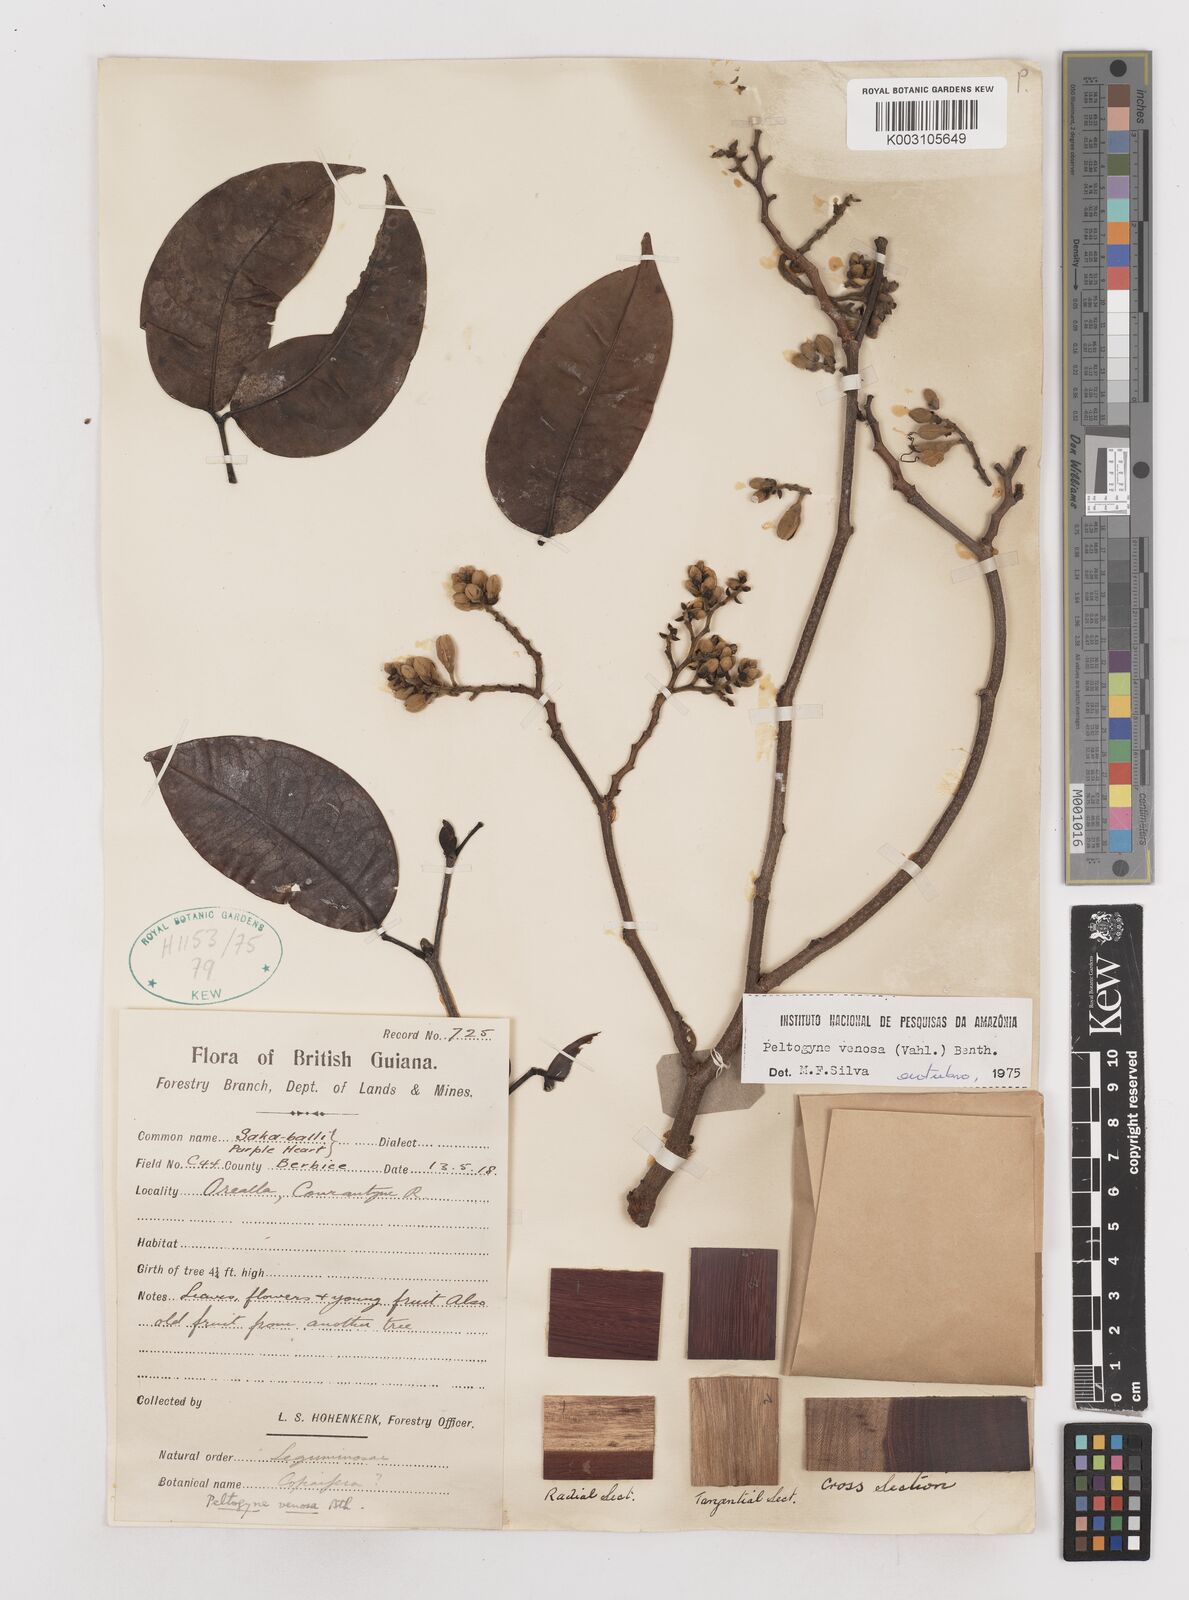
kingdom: Plantae
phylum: Tracheophyta
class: Magnoliopsida
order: Fabales
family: Fabaceae
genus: Peltogyne
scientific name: Peltogyne venosa
